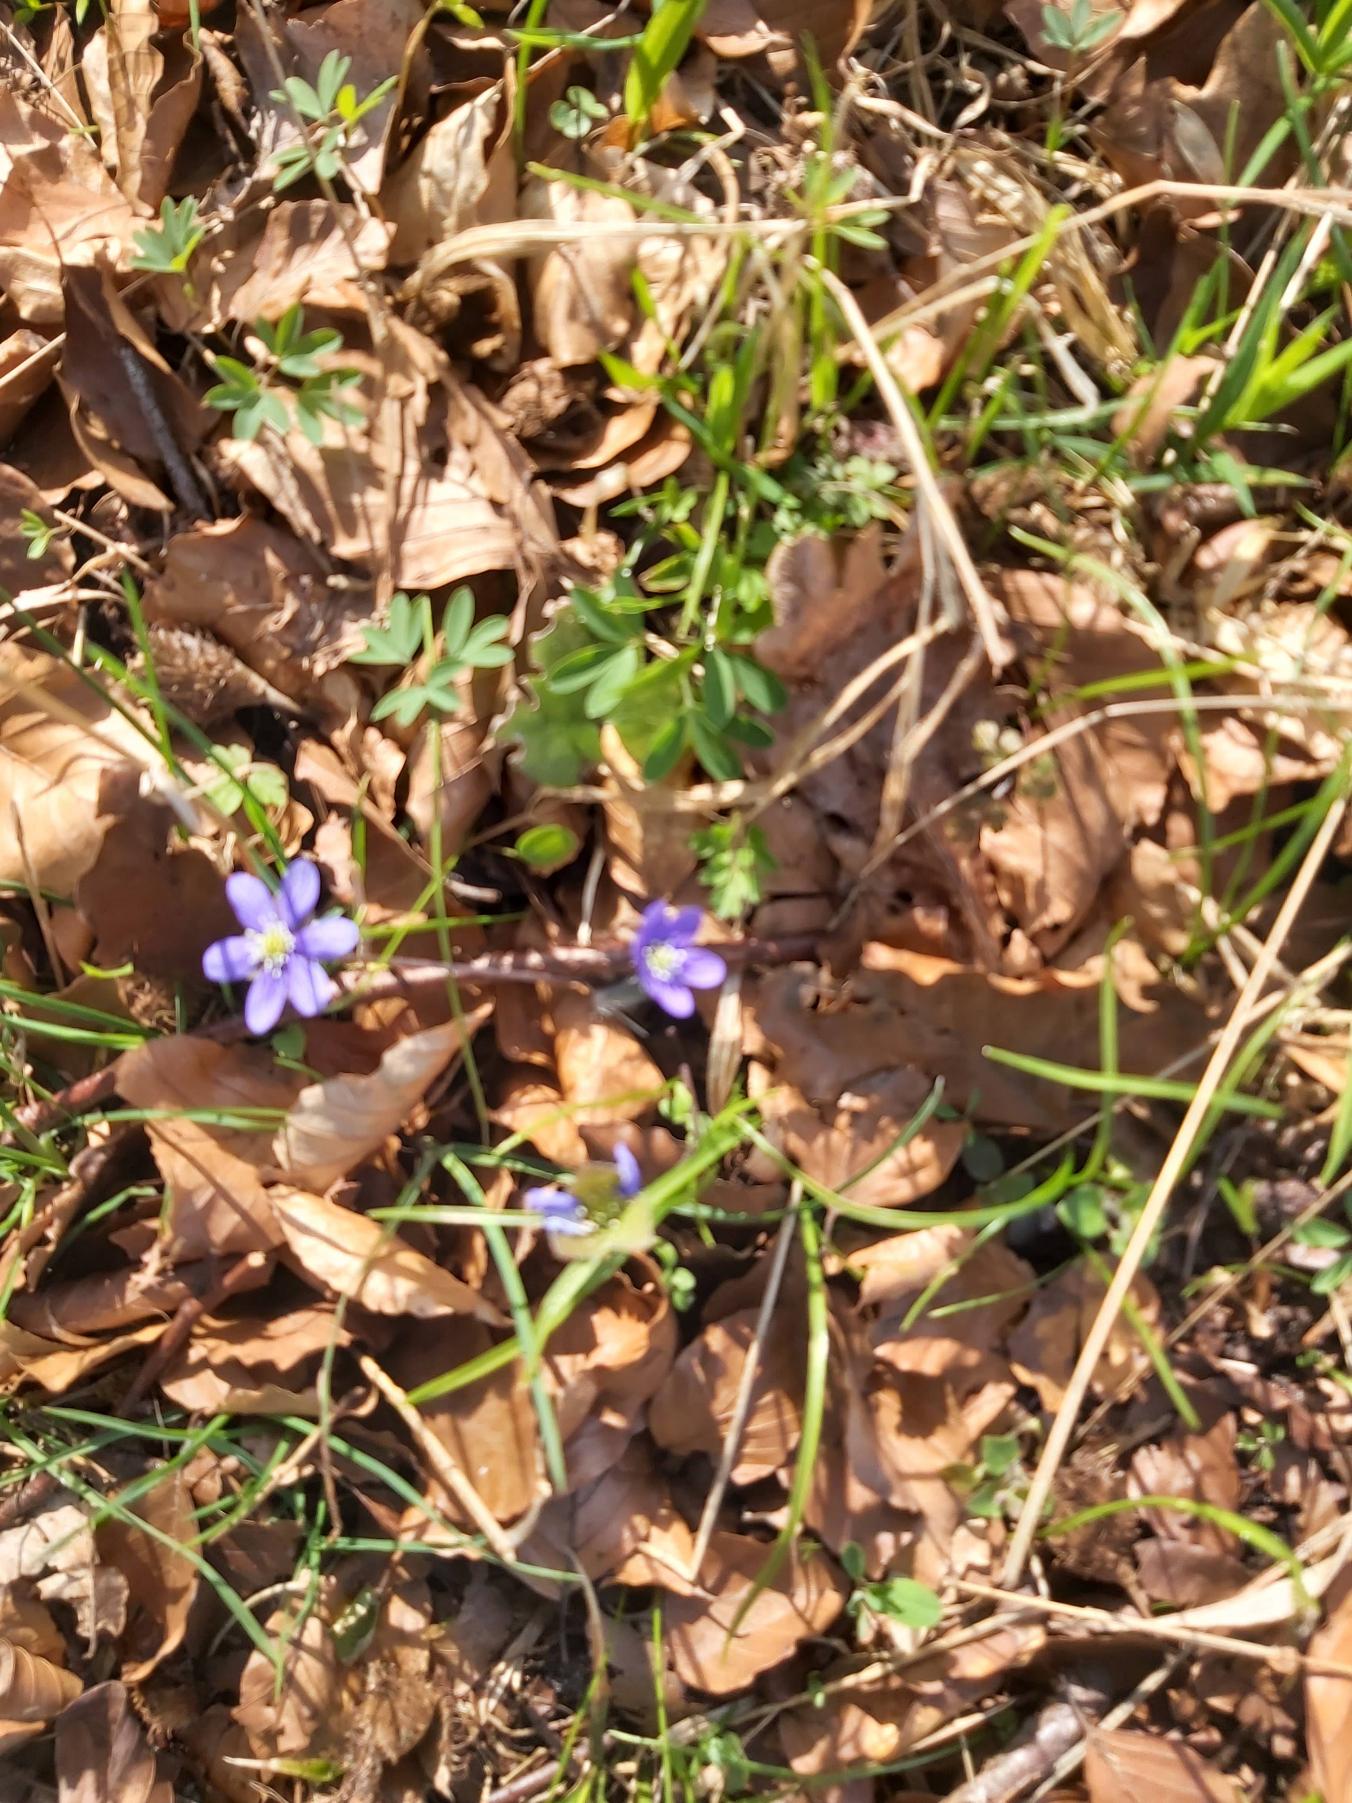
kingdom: Plantae
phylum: Tracheophyta
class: Magnoliopsida
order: Ranunculales
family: Ranunculaceae
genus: Hepatica
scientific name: Hepatica nobilis
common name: Blå anemone
